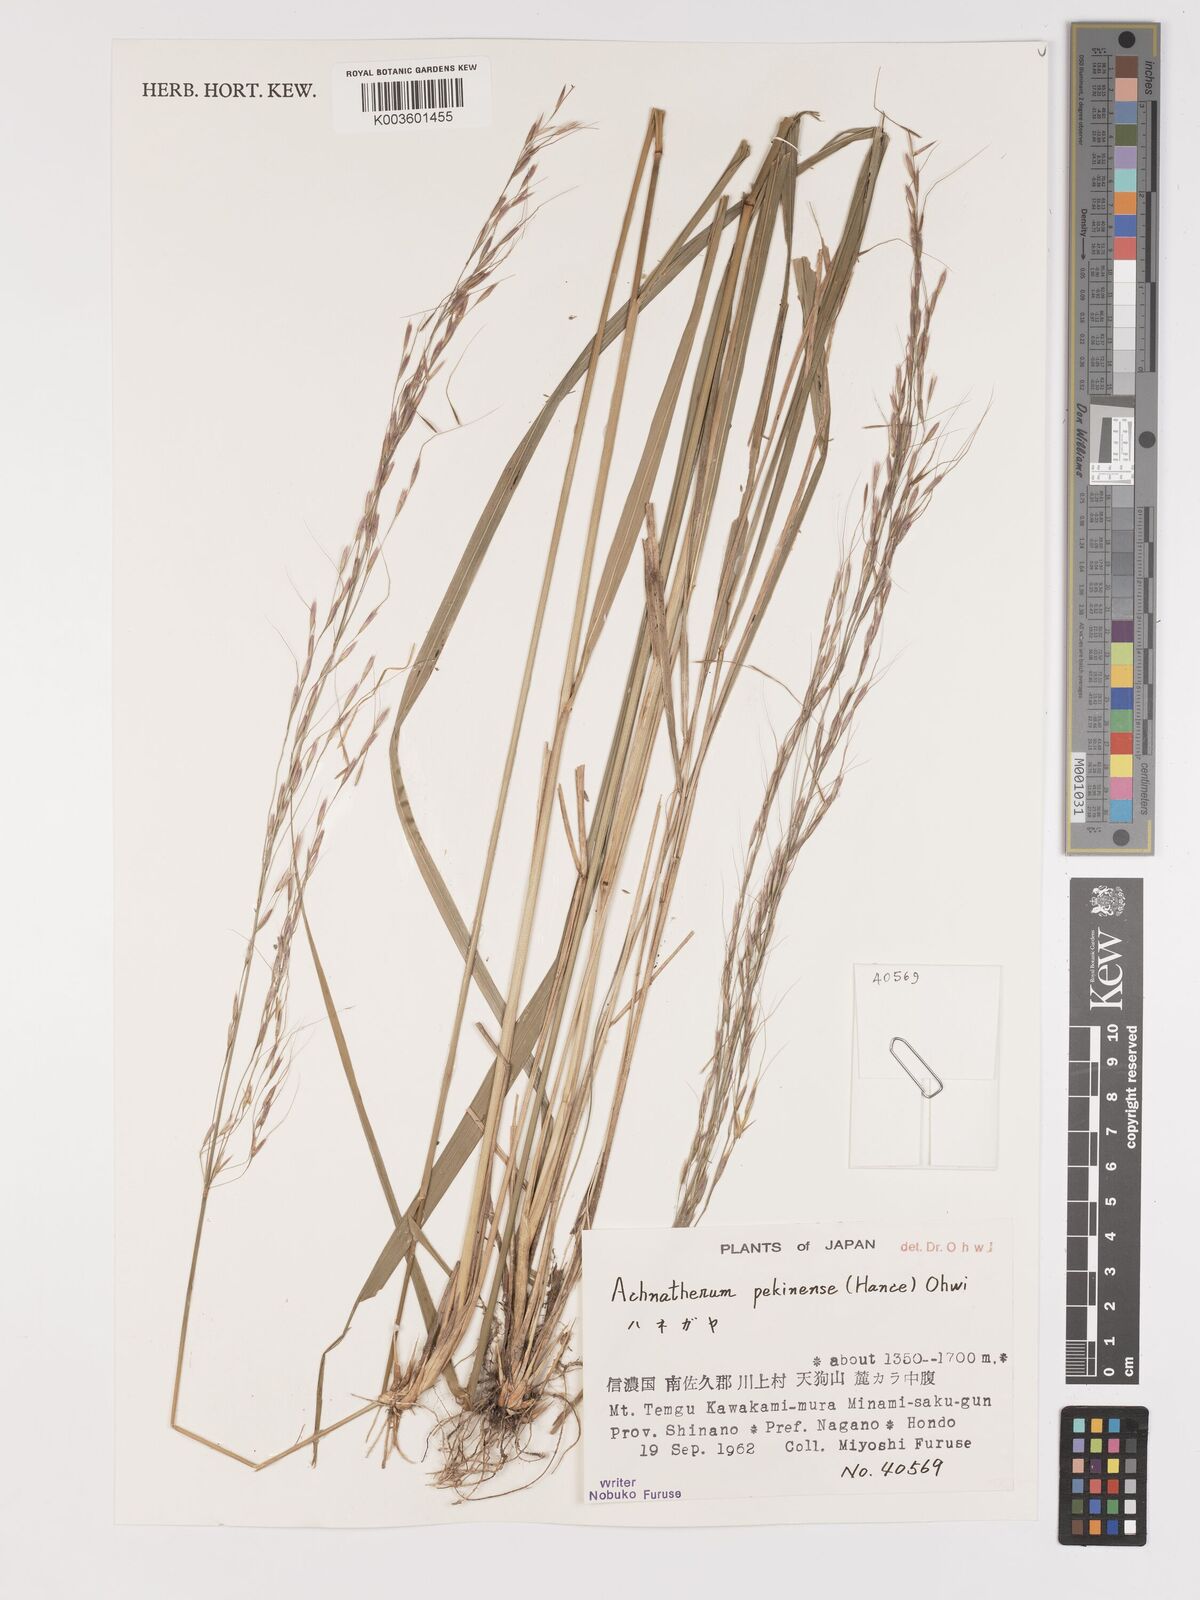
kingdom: Plantae
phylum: Tracheophyta
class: Liliopsida
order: Poales
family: Poaceae
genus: Achnatherum
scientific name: Achnatherum pekinense
